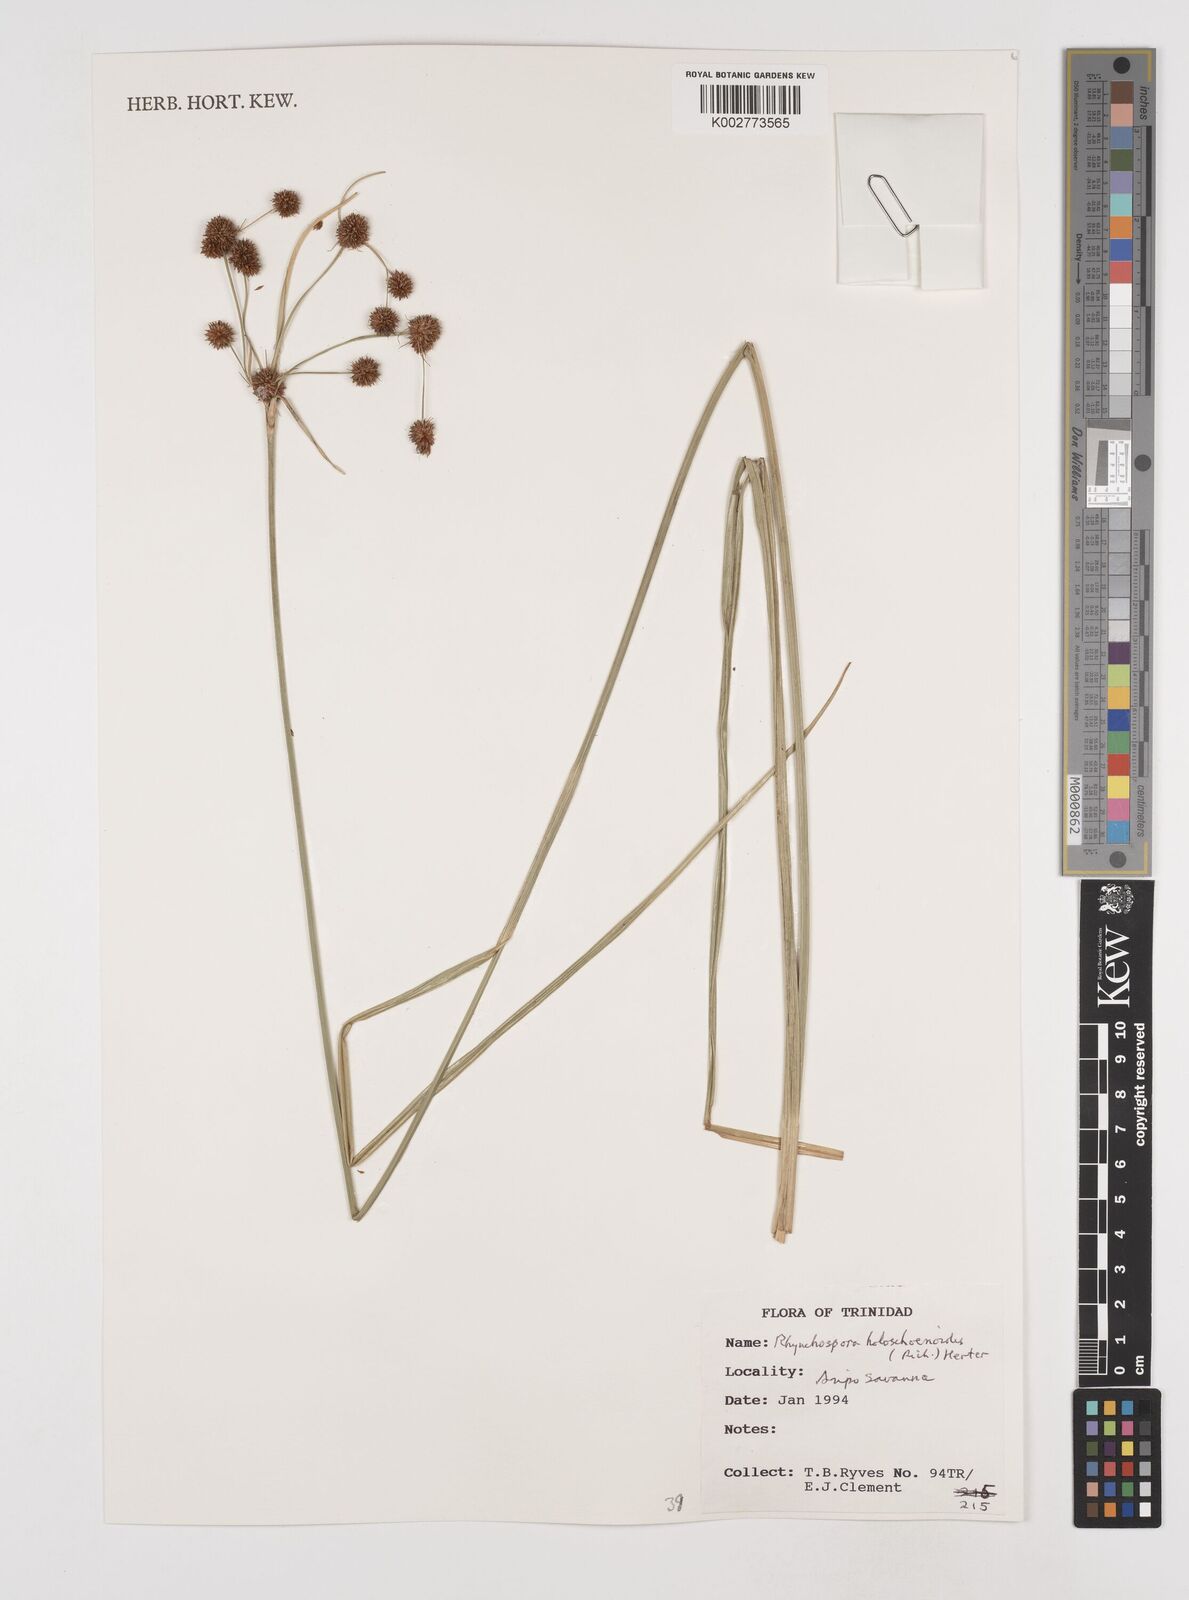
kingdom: Plantae
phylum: Tracheophyta
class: Liliopsida
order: Poales
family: Cyperaceae
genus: Rhynchospora
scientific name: Rhynchospora holoschoenoides
